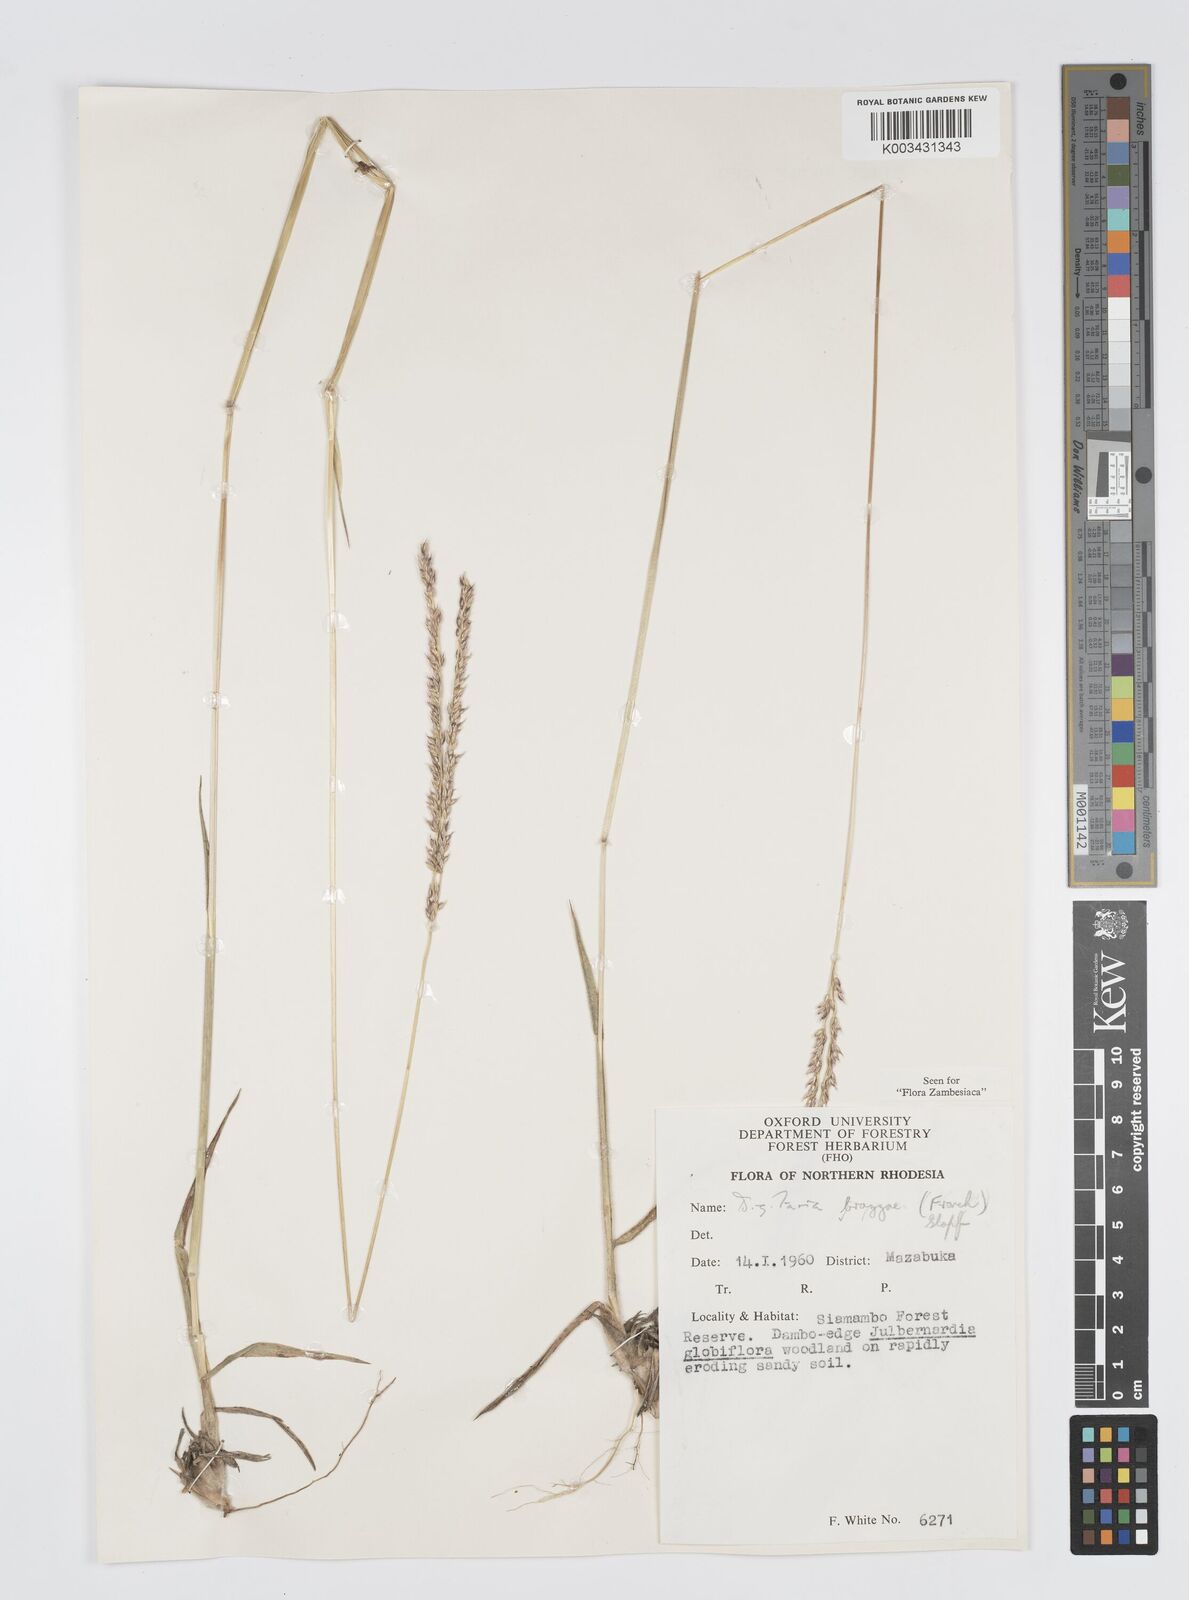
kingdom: Plantae
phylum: Tracheophyta
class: Liliopsida
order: Poales
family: Poaceae
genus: Digitaria
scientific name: Digitaria brazzae
